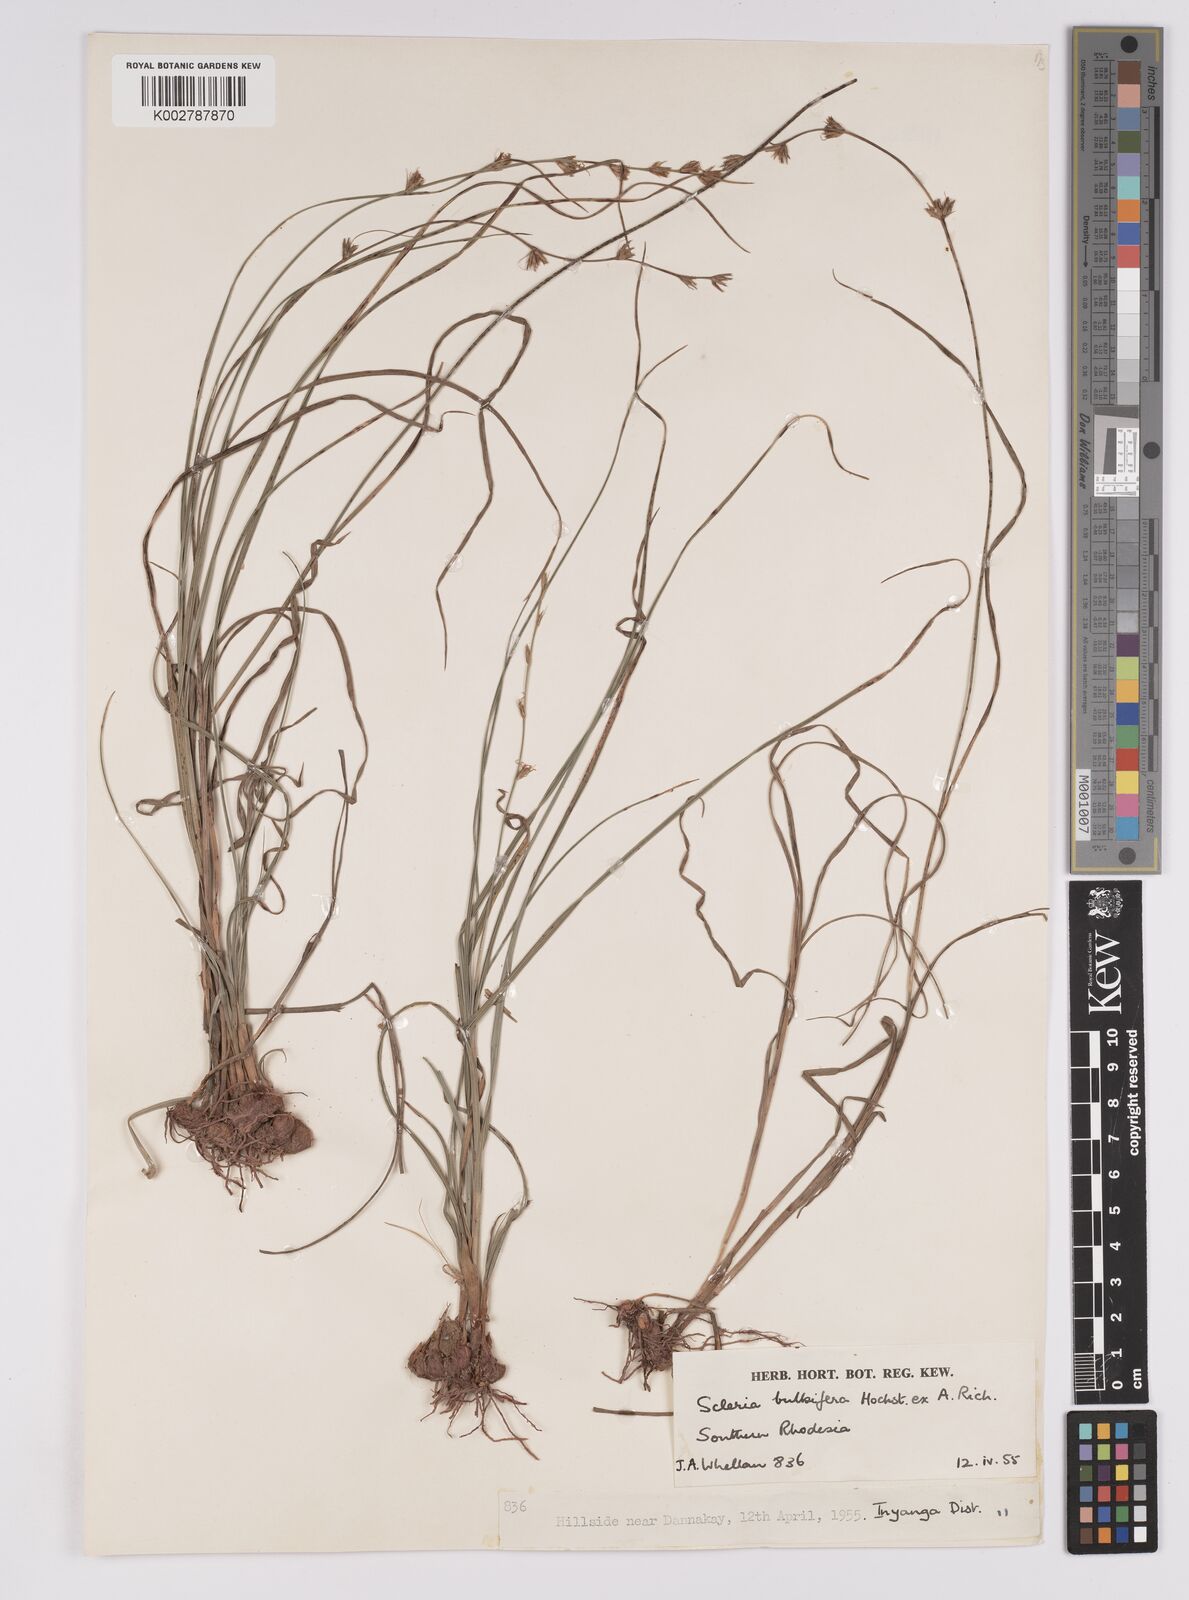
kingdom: Plantae
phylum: Tracheophyta
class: Liliopsida
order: Poales
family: Cyperaceae
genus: Scleria
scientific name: Scleria bulbifera
